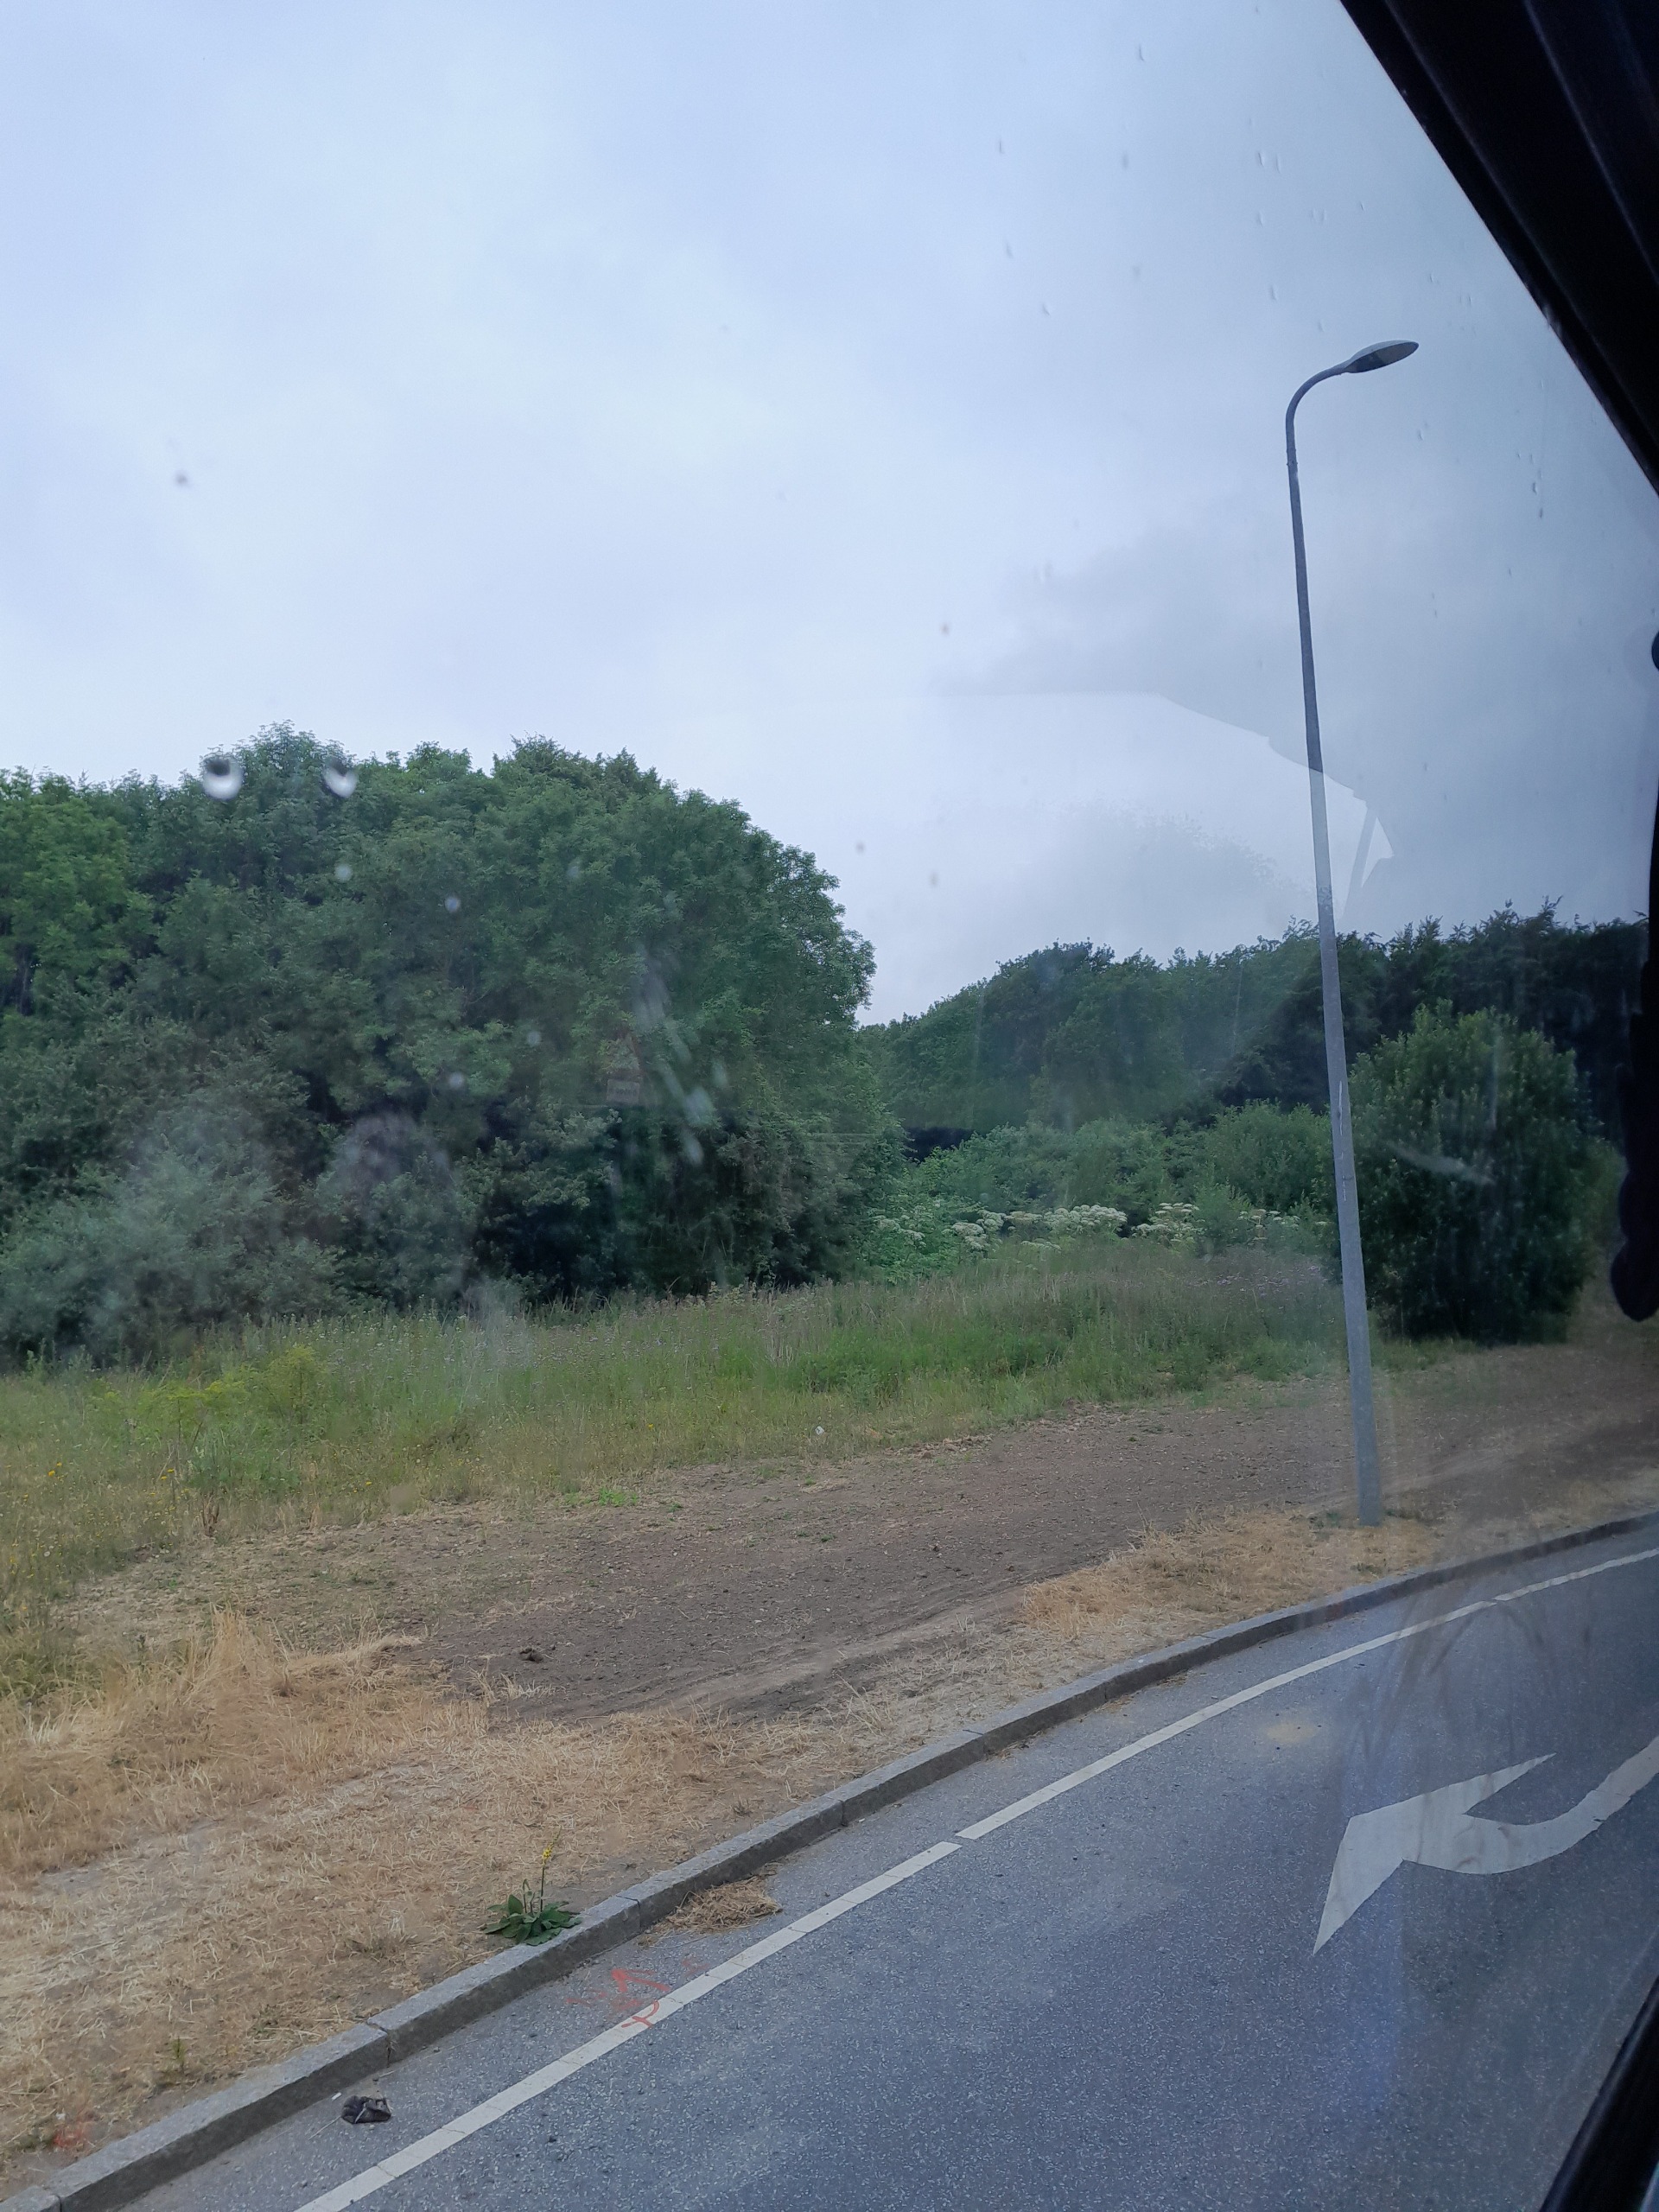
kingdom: Plantae
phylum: Tracheophyta
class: Magnoliopsida
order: Apiales
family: Apiaceae
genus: Heracleum
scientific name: Heracleum mantegazzianum
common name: Kæmpe-bjørneklo
